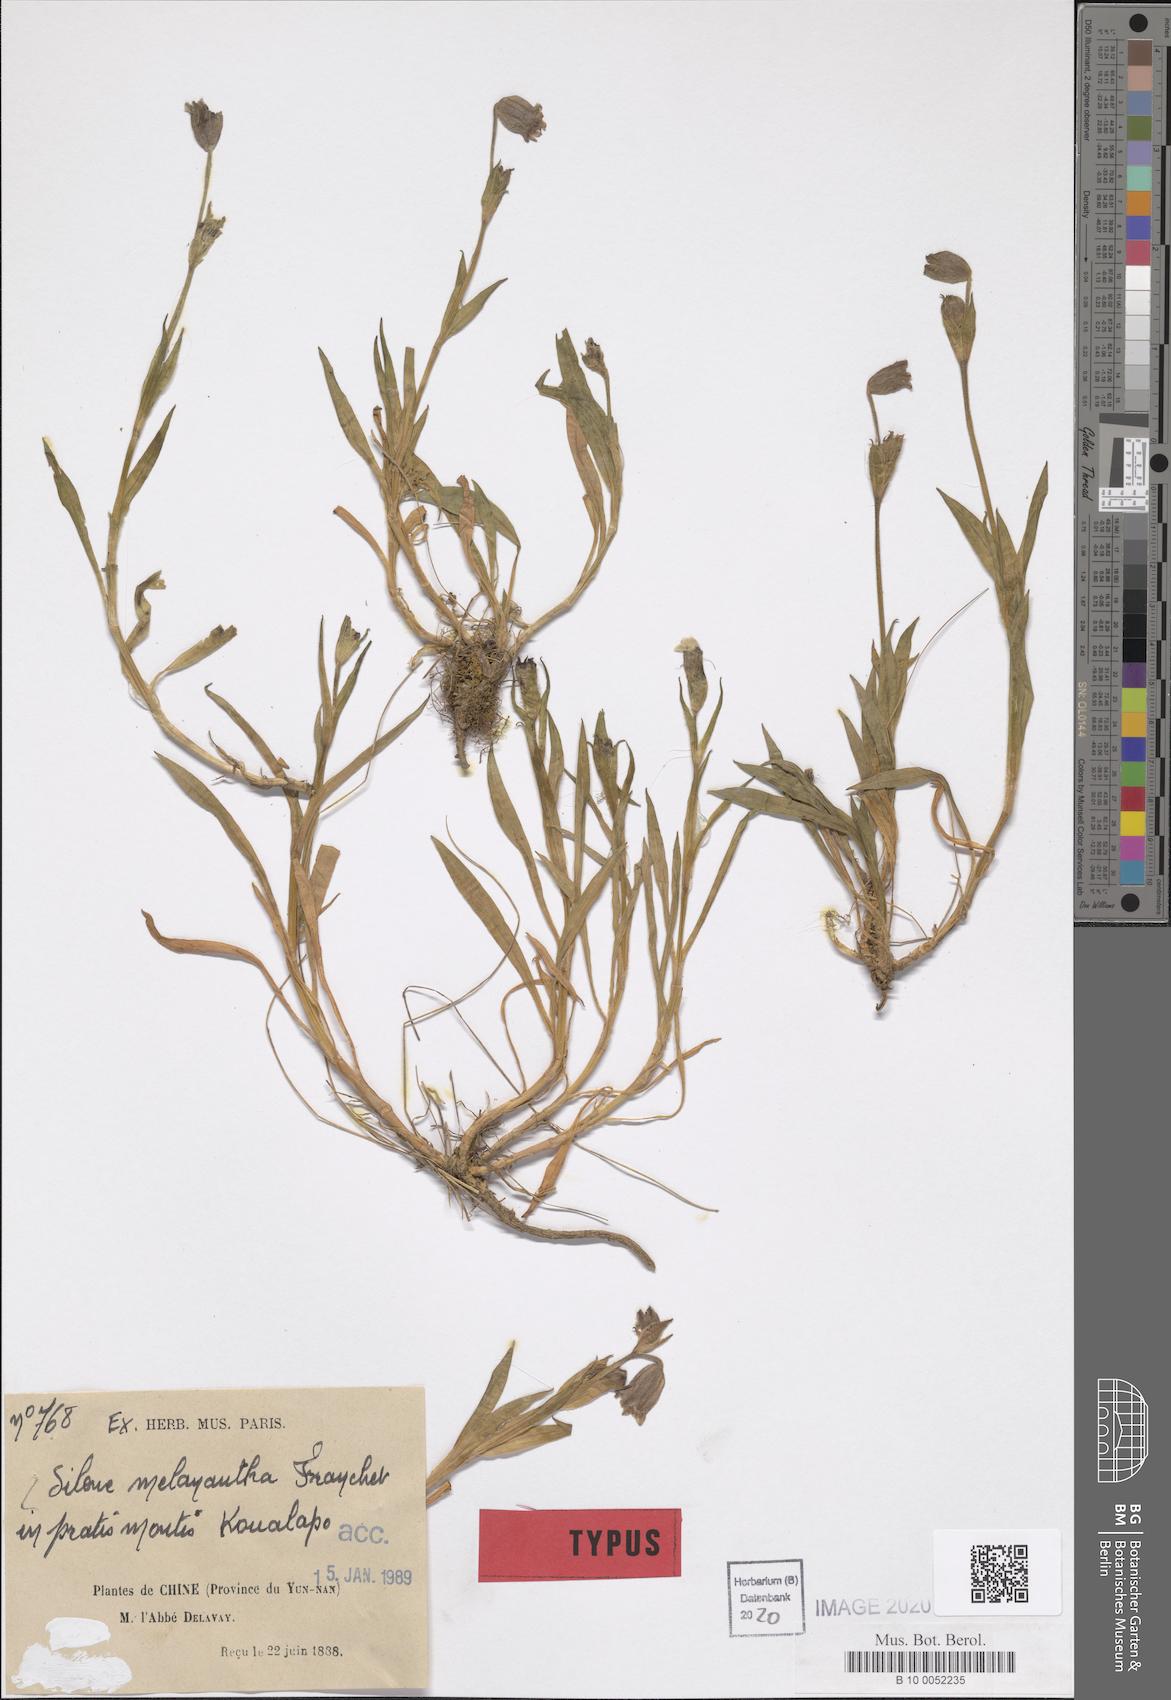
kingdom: Plantae
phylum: Tracheophyta
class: Magnoliopsida
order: Caryophyllales
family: Caryophyllaceae
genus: Silene
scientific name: Silene melanantha
